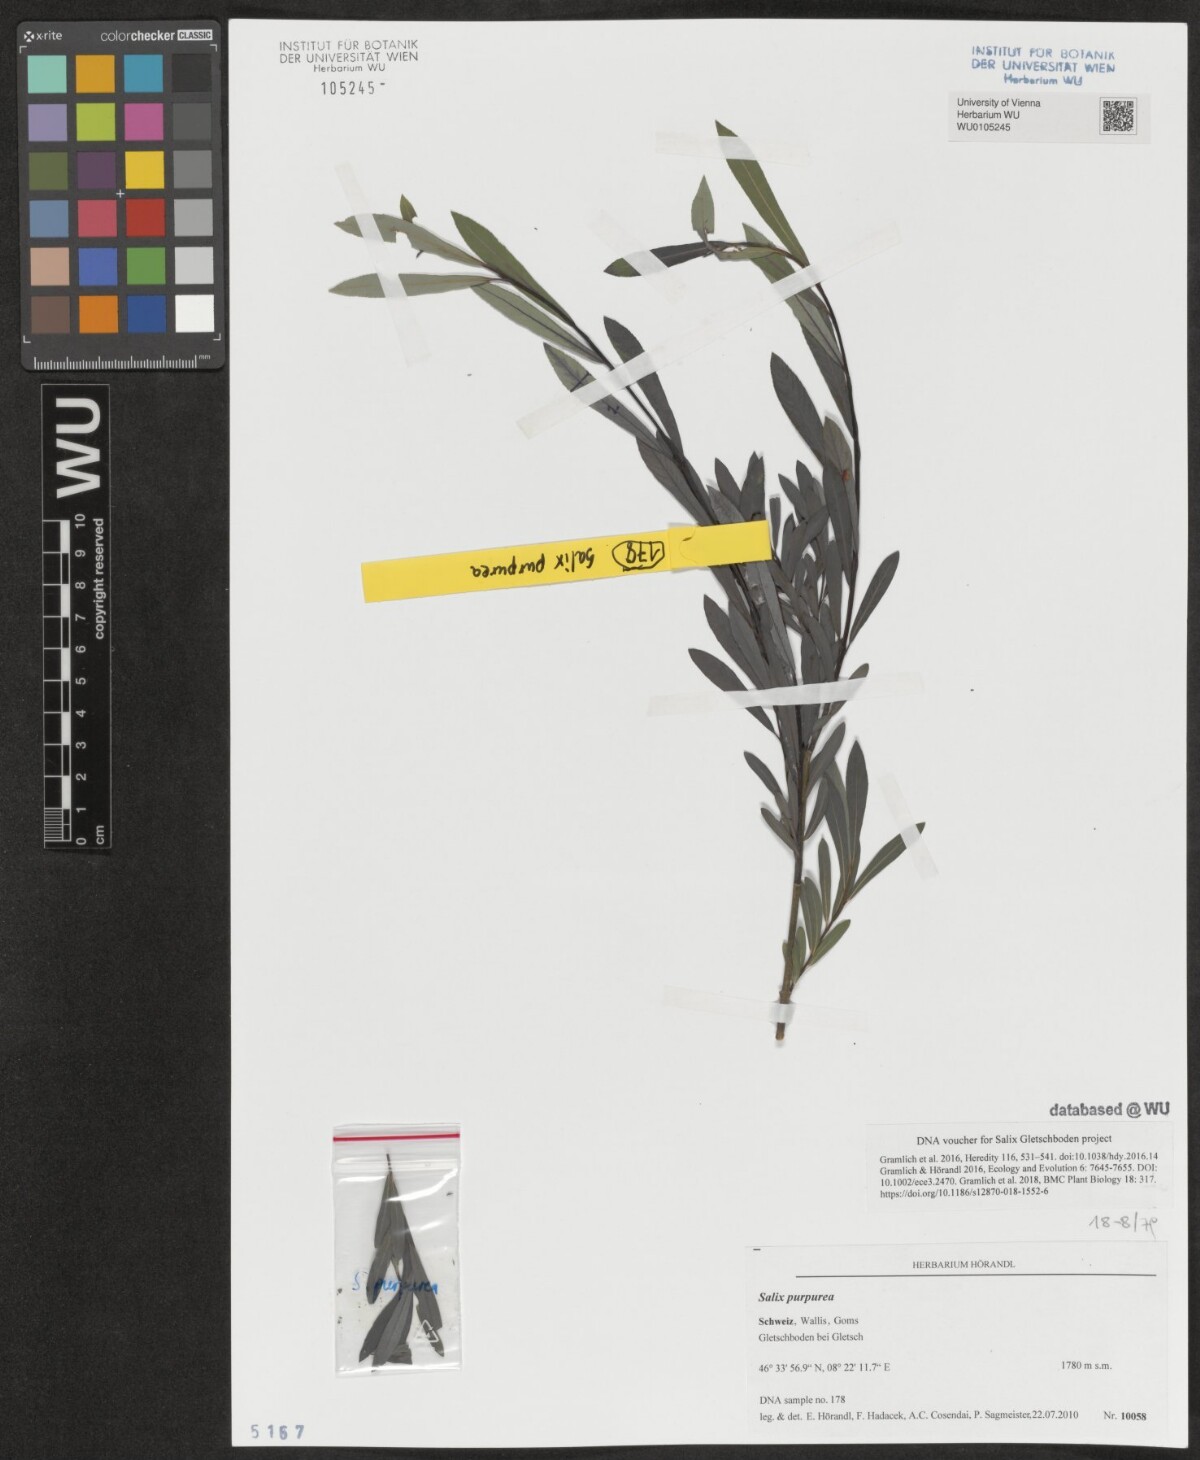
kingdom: Plantae
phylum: Tracheophyta
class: Magnoliopsida
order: Malpighiales
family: Salicaceae
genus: Salix
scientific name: Salix purpurea
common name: Purple willow
